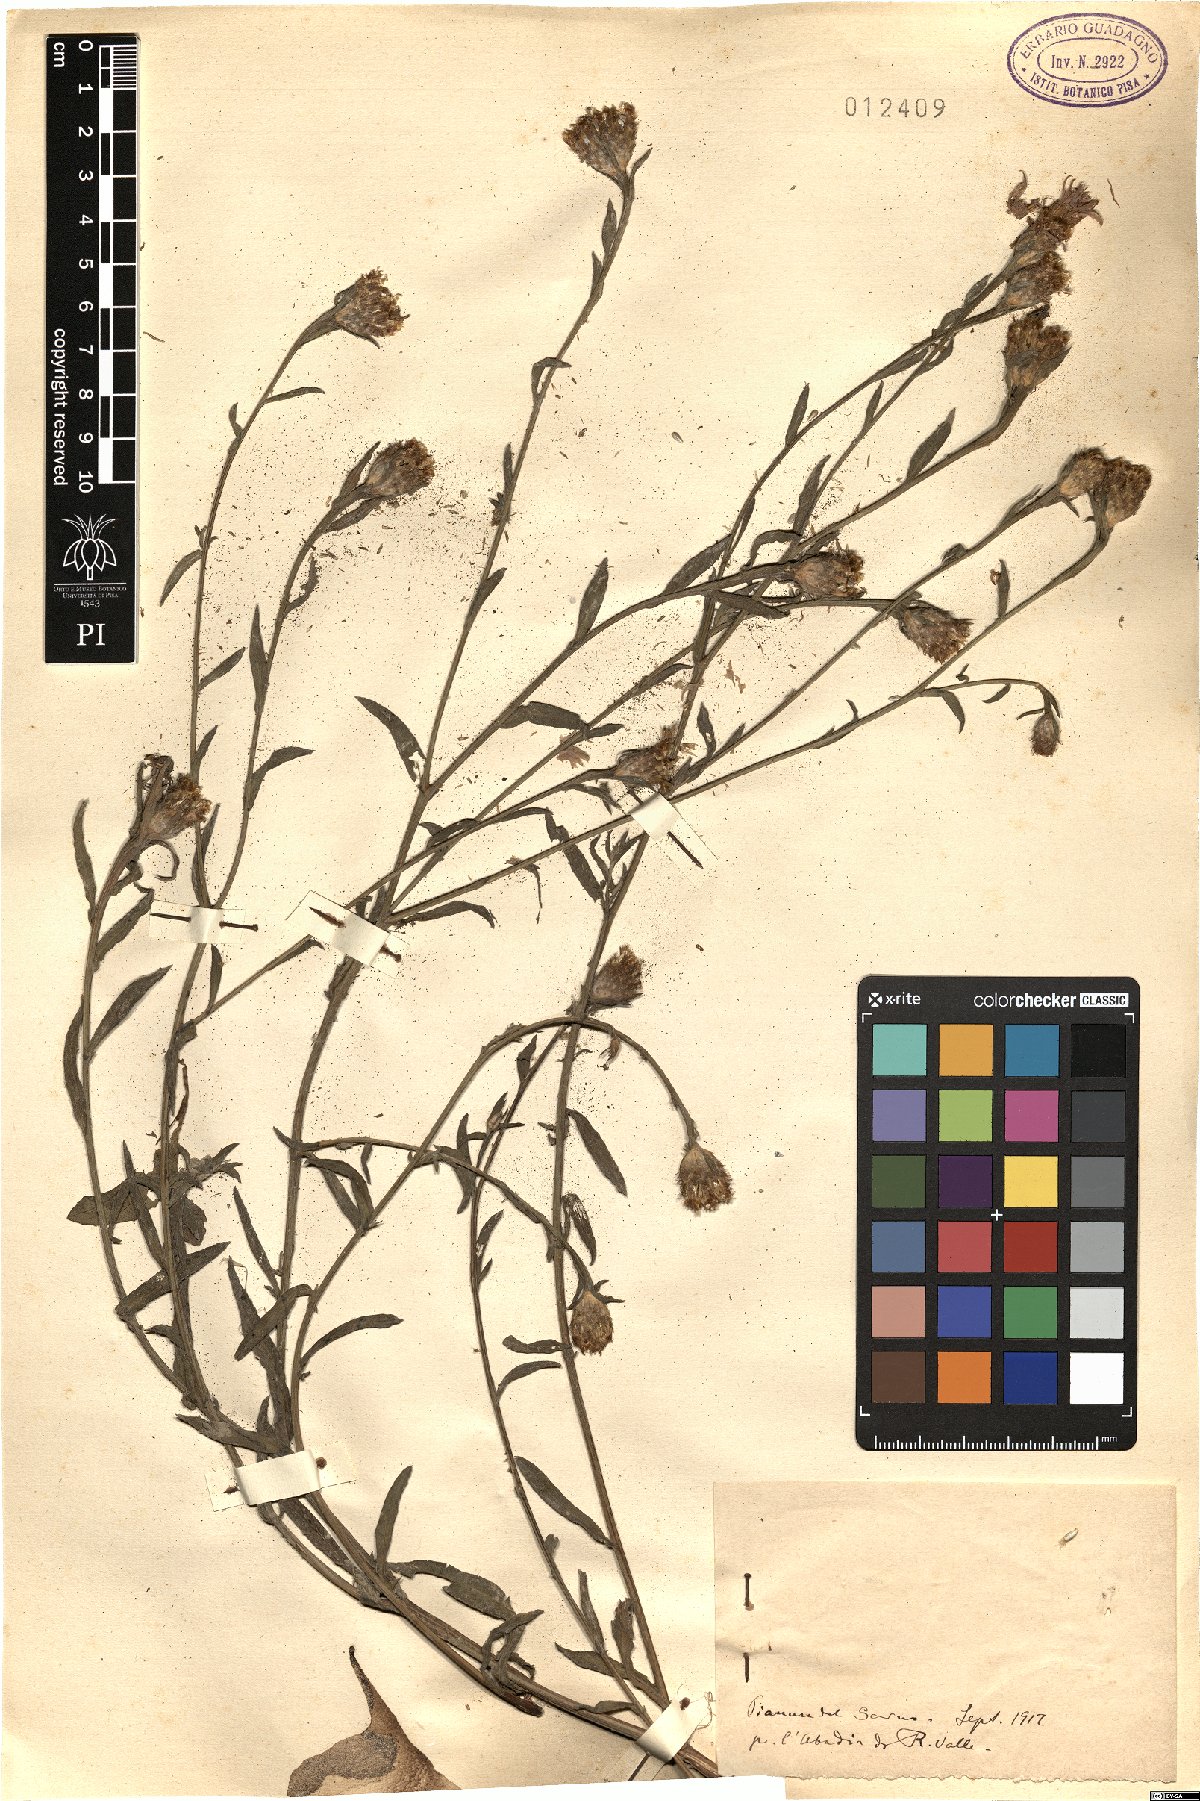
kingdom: Plantae
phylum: Tracheophyta
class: Magnoliopsida
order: Asterales
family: Asteraceae
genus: Centaurea
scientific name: Centaurea
